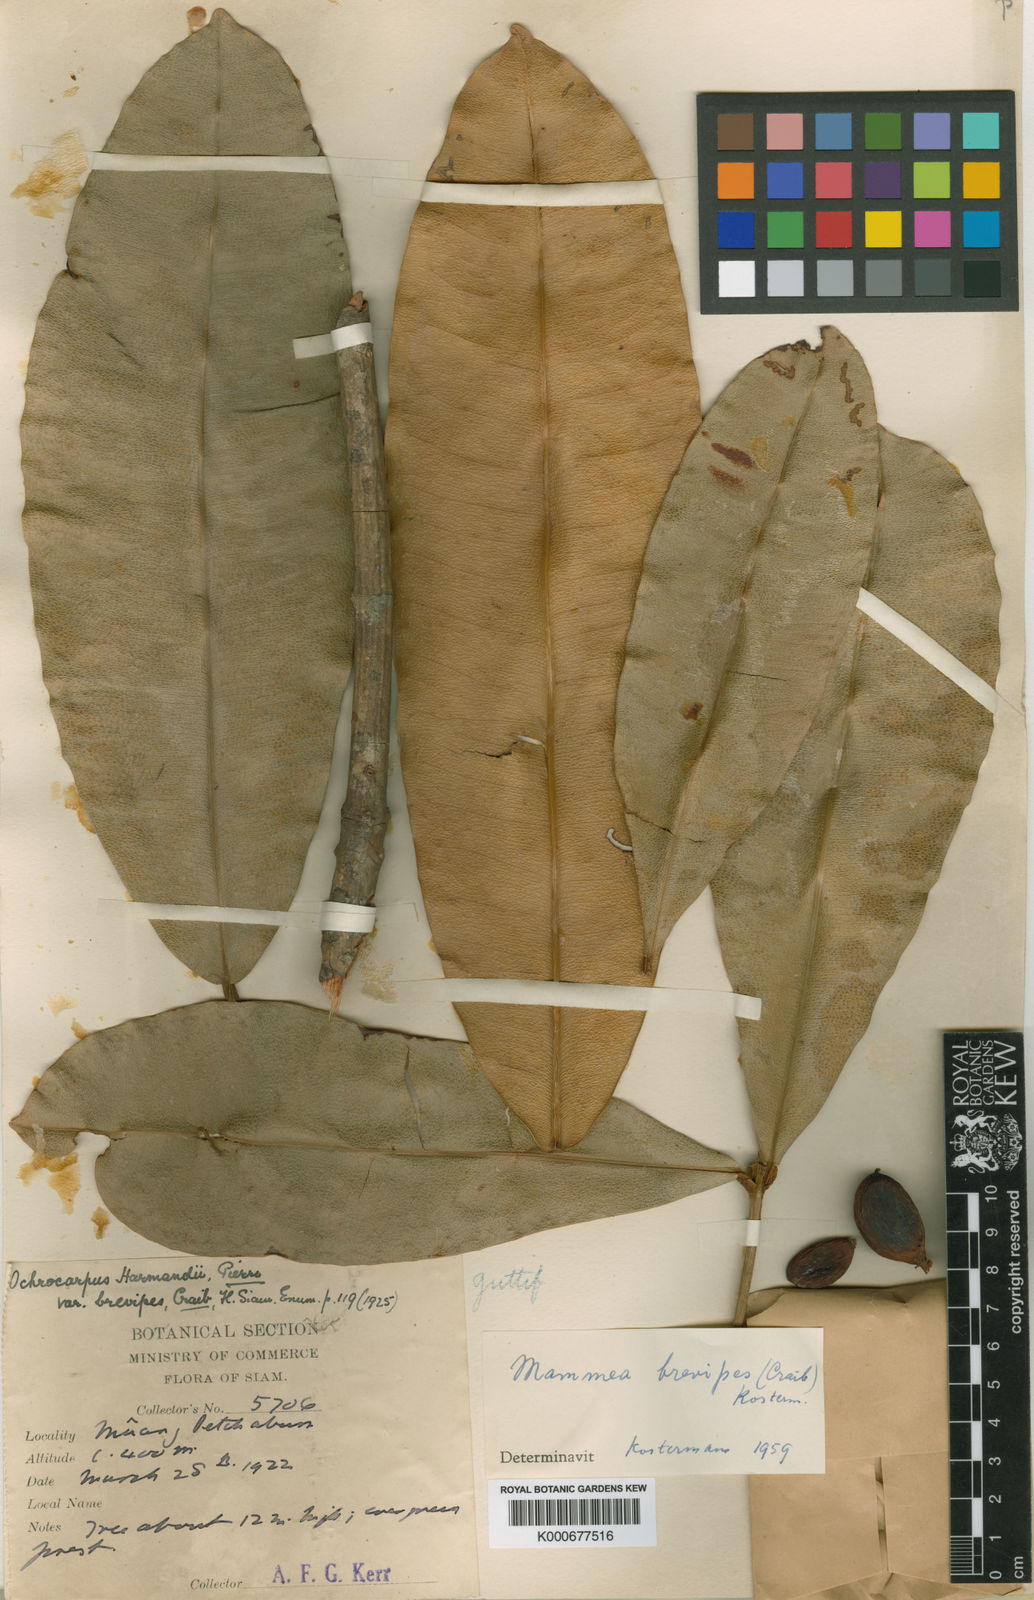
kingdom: Plantae
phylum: Tracheophyta
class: Magnoliopsida
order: Malpighiales
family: Calophyllaceae
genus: Mammea
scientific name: Mammea harmandii
